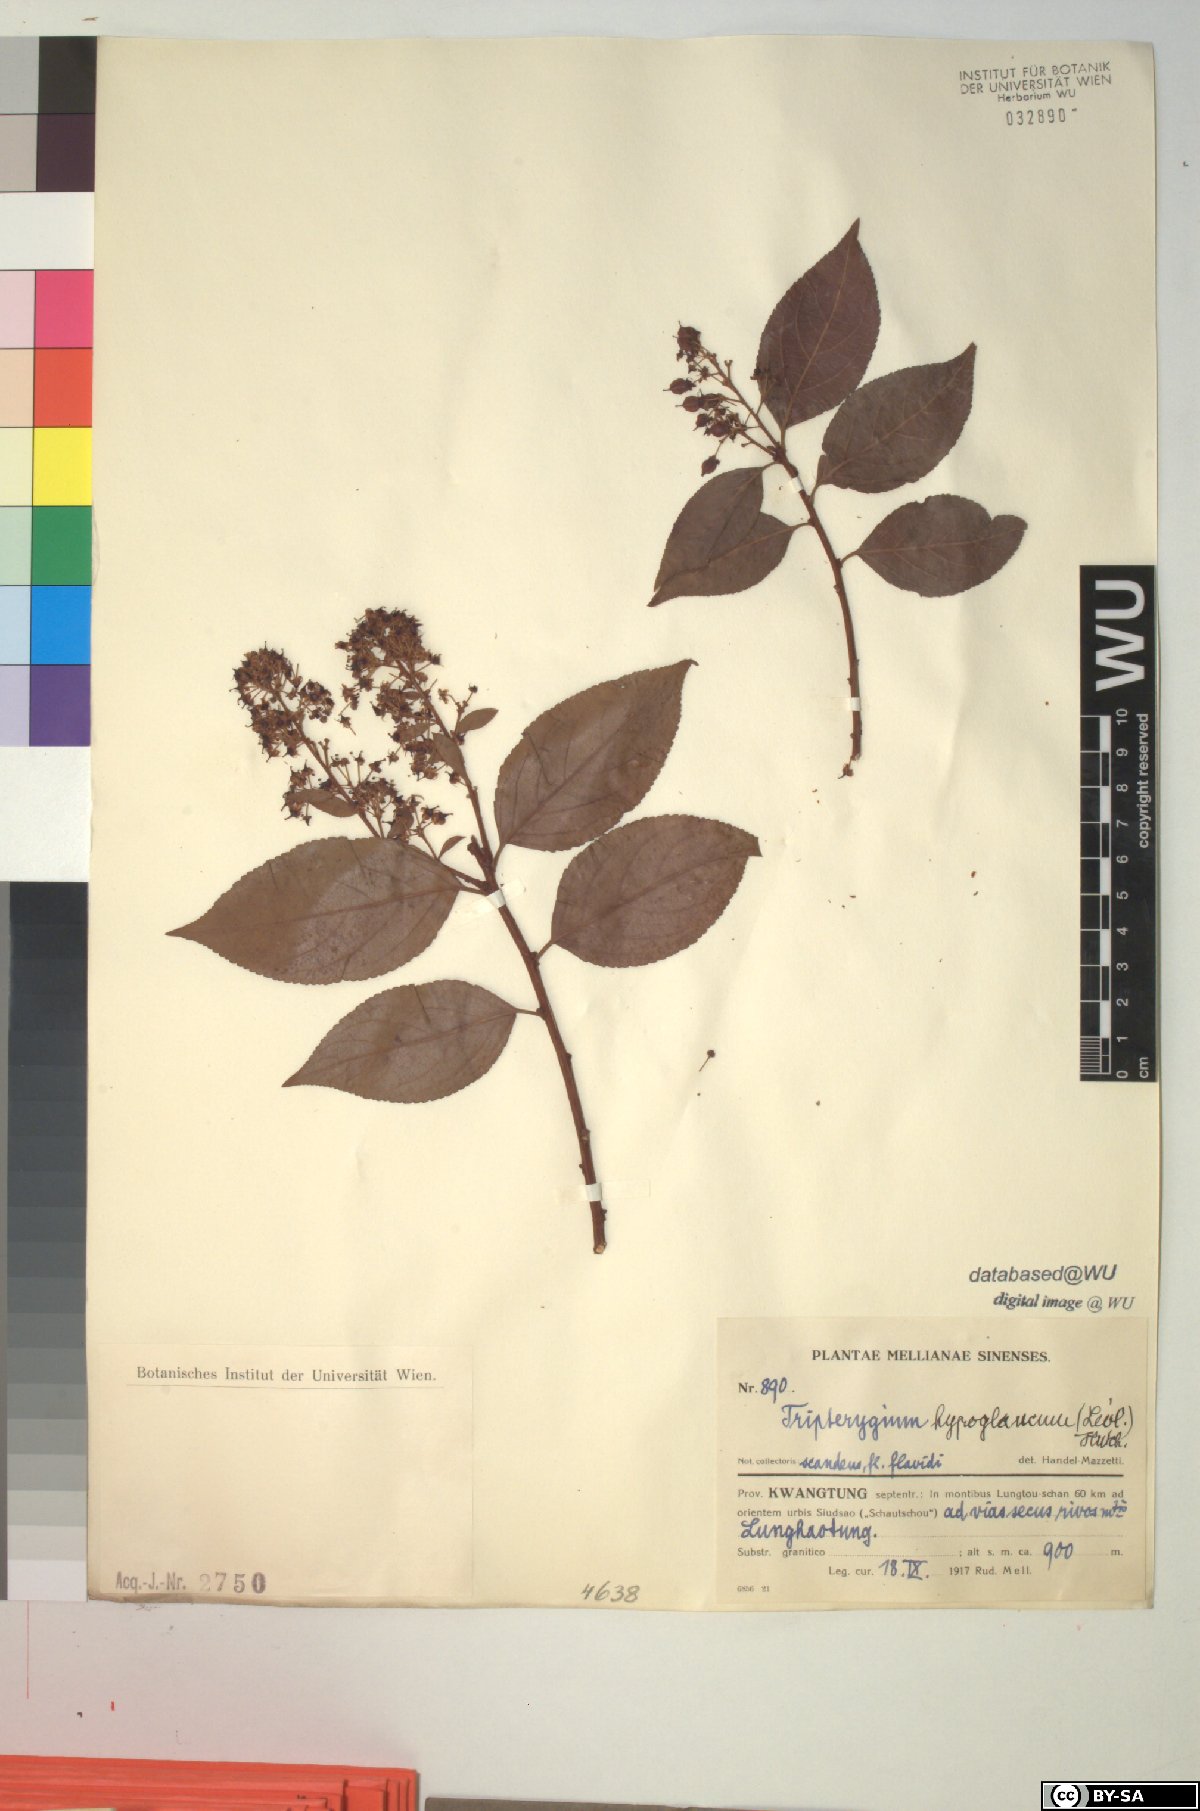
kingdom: Plantae
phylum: Tracheophyta
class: Magnoliopsida
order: Celastrales
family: Celastraceae
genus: Tripterygium
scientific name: Tripterygium wilfordii
